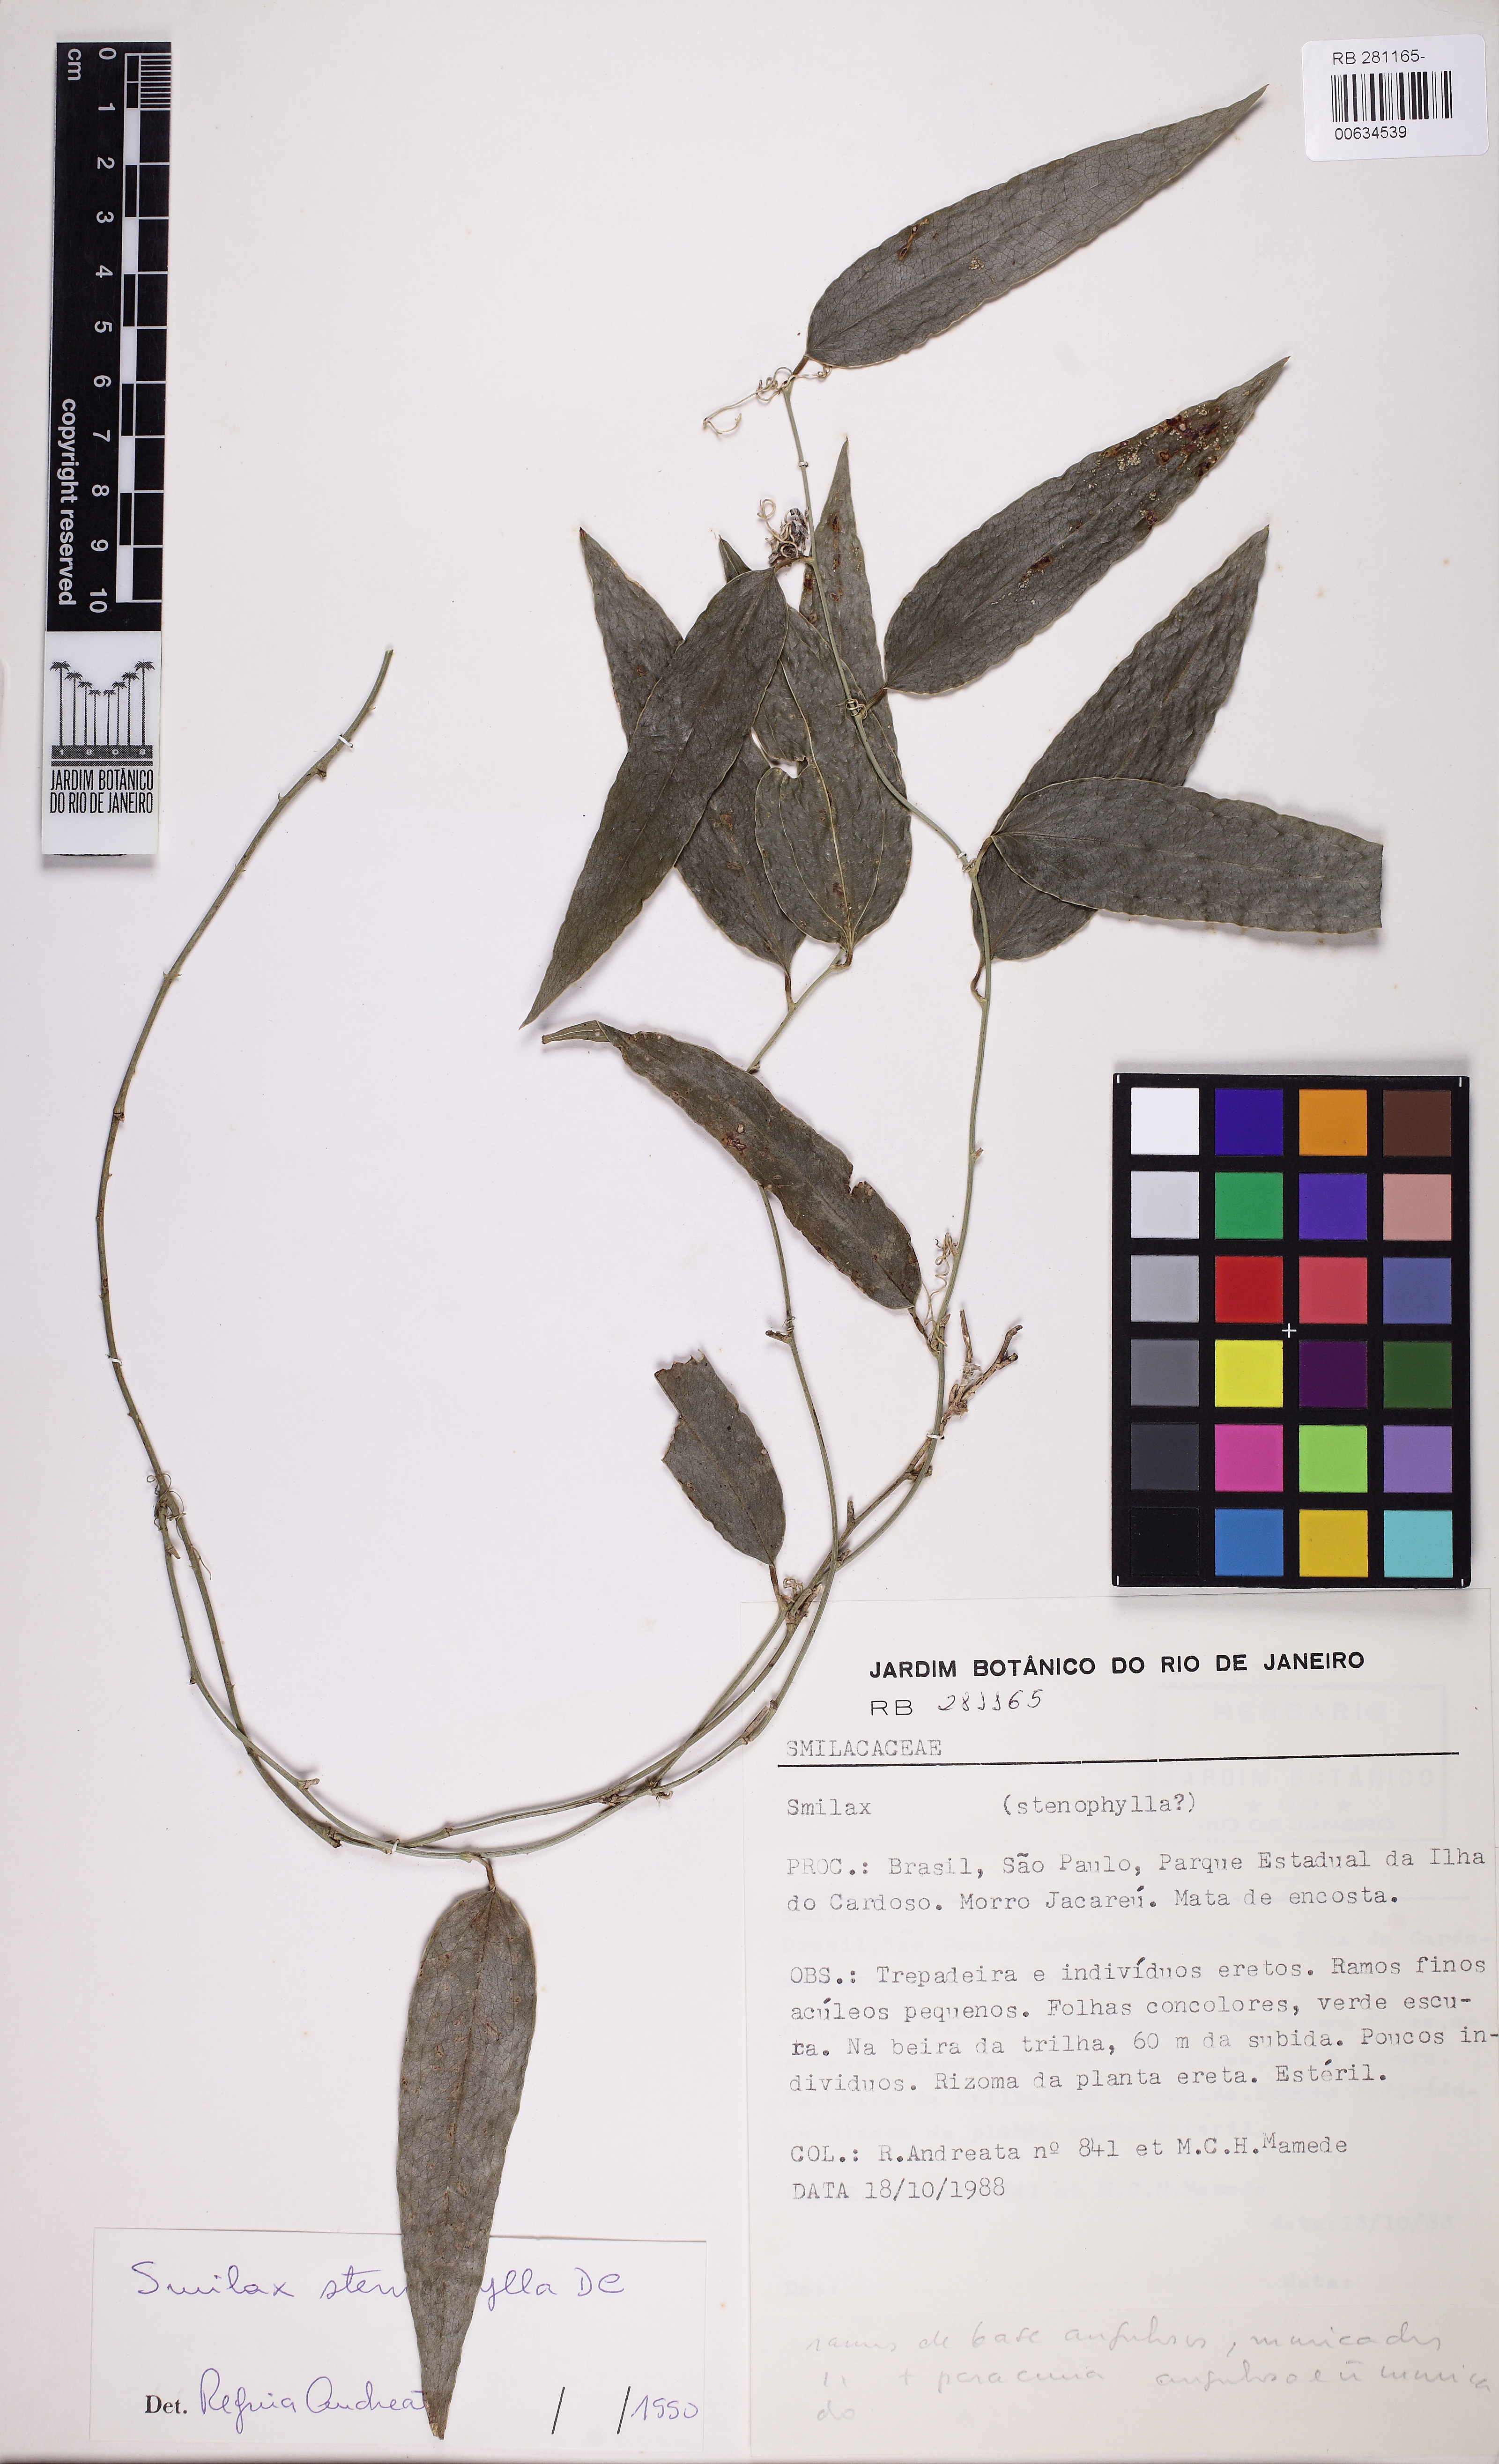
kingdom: Plantae
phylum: Tracheophyta
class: Liliopsida
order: Liliales
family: Smilacaceae
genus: Smilax
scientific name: Smilax stenophylla
